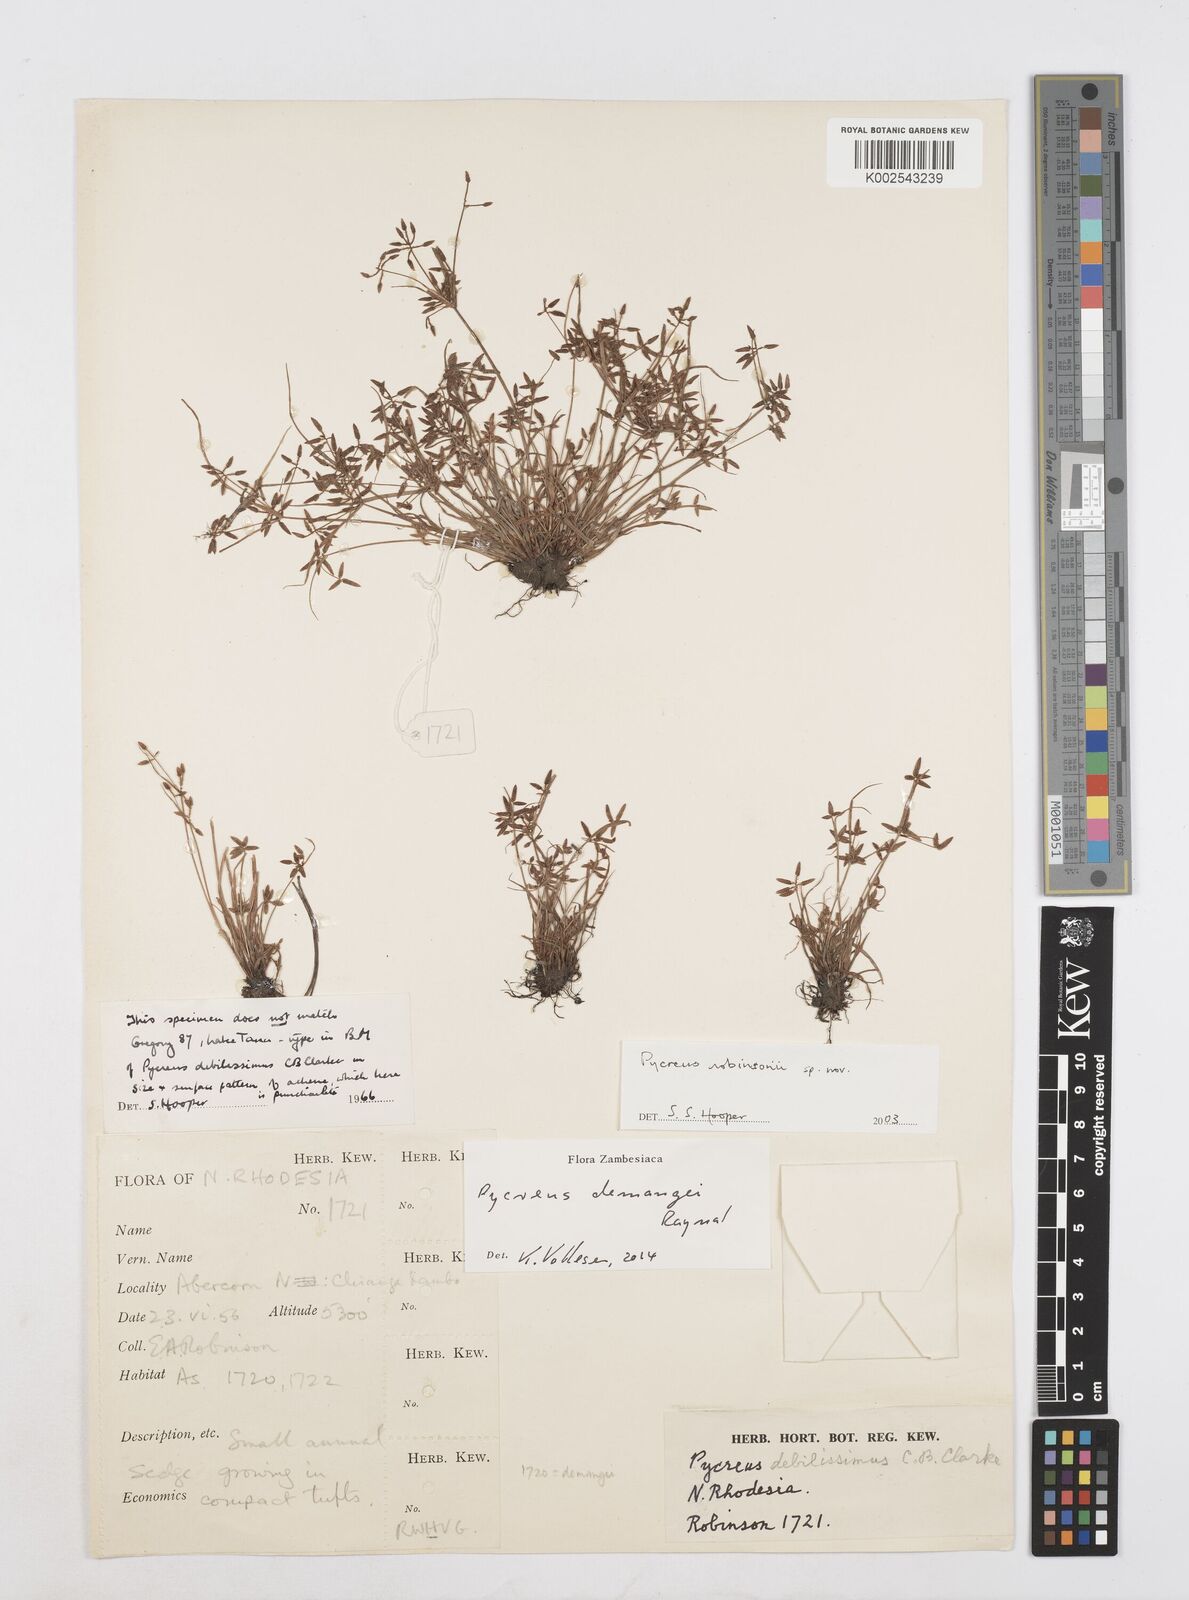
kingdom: Plantae
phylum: Tracheophyta
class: Liliopsida
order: Poales
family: Cyperaceae
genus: Cyperus
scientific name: Cyperus demangei
